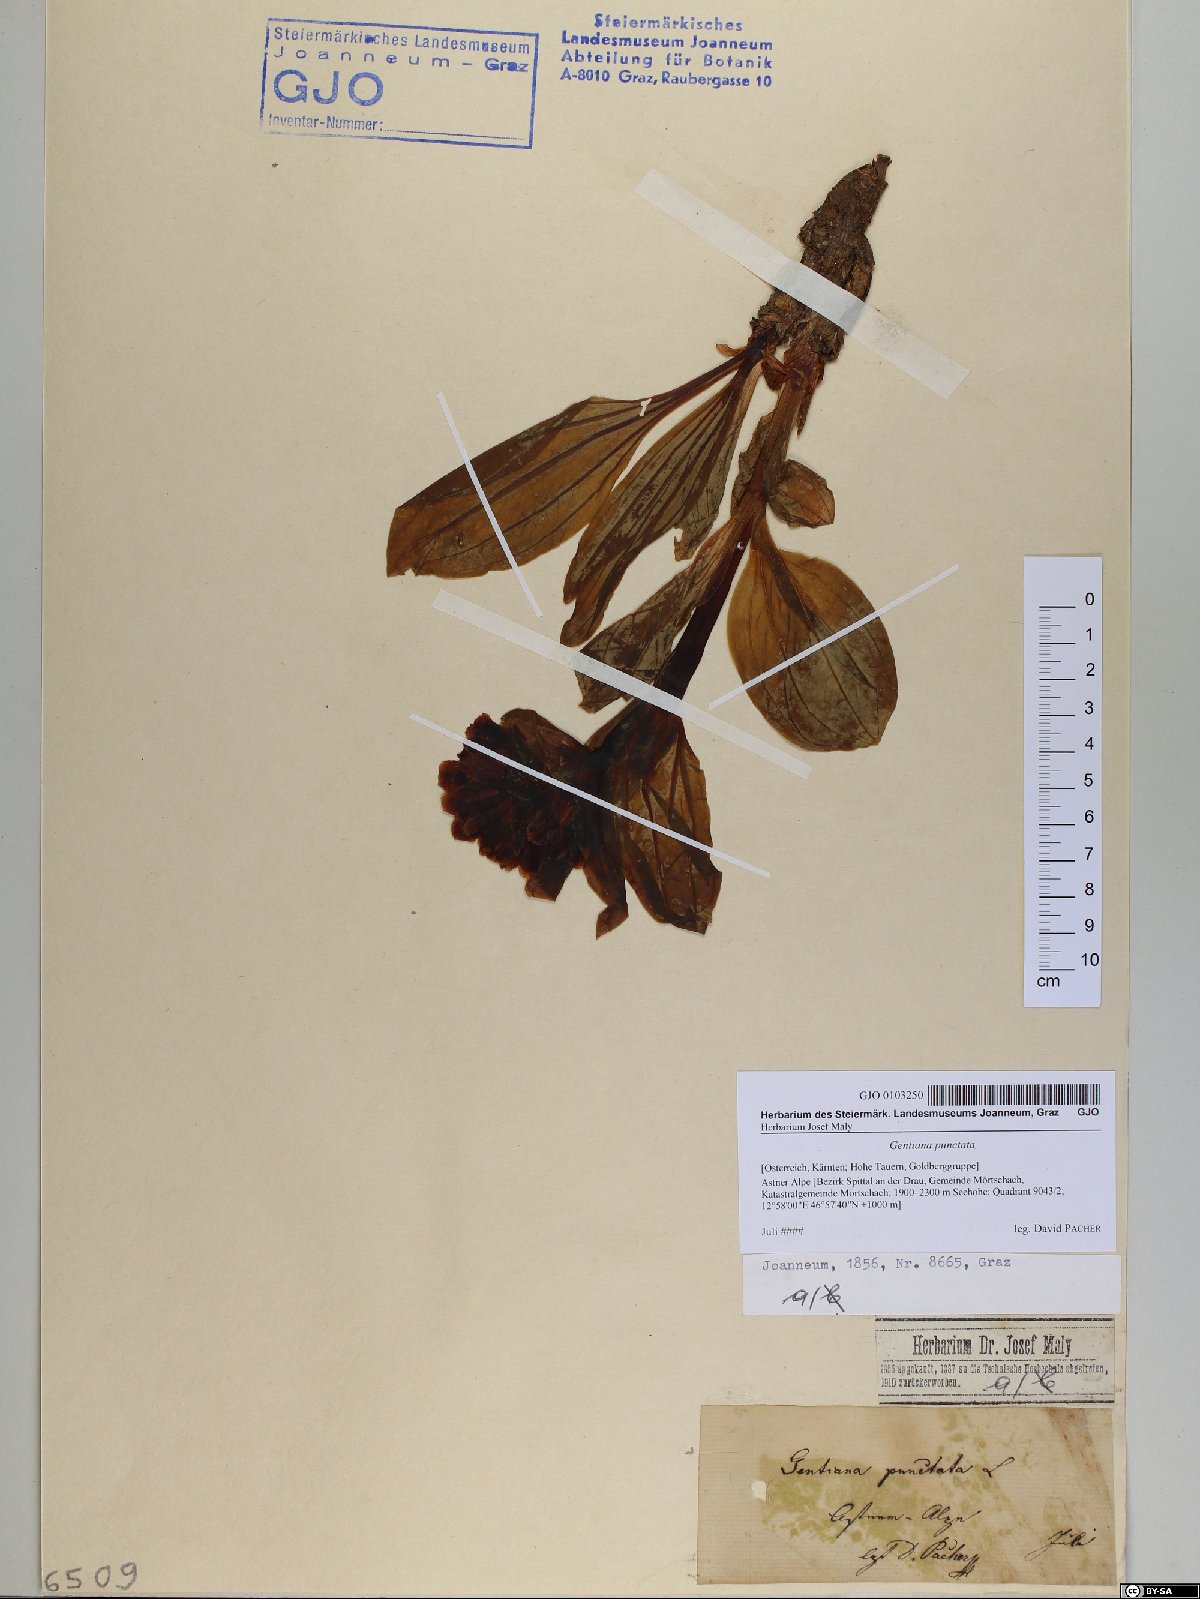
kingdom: Plantae
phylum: Tracheophyta
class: Magnoliopsida
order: Gentianales
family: Gentianaceae
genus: Gentiana
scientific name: Gentiana punctata
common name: Spotted gentian
